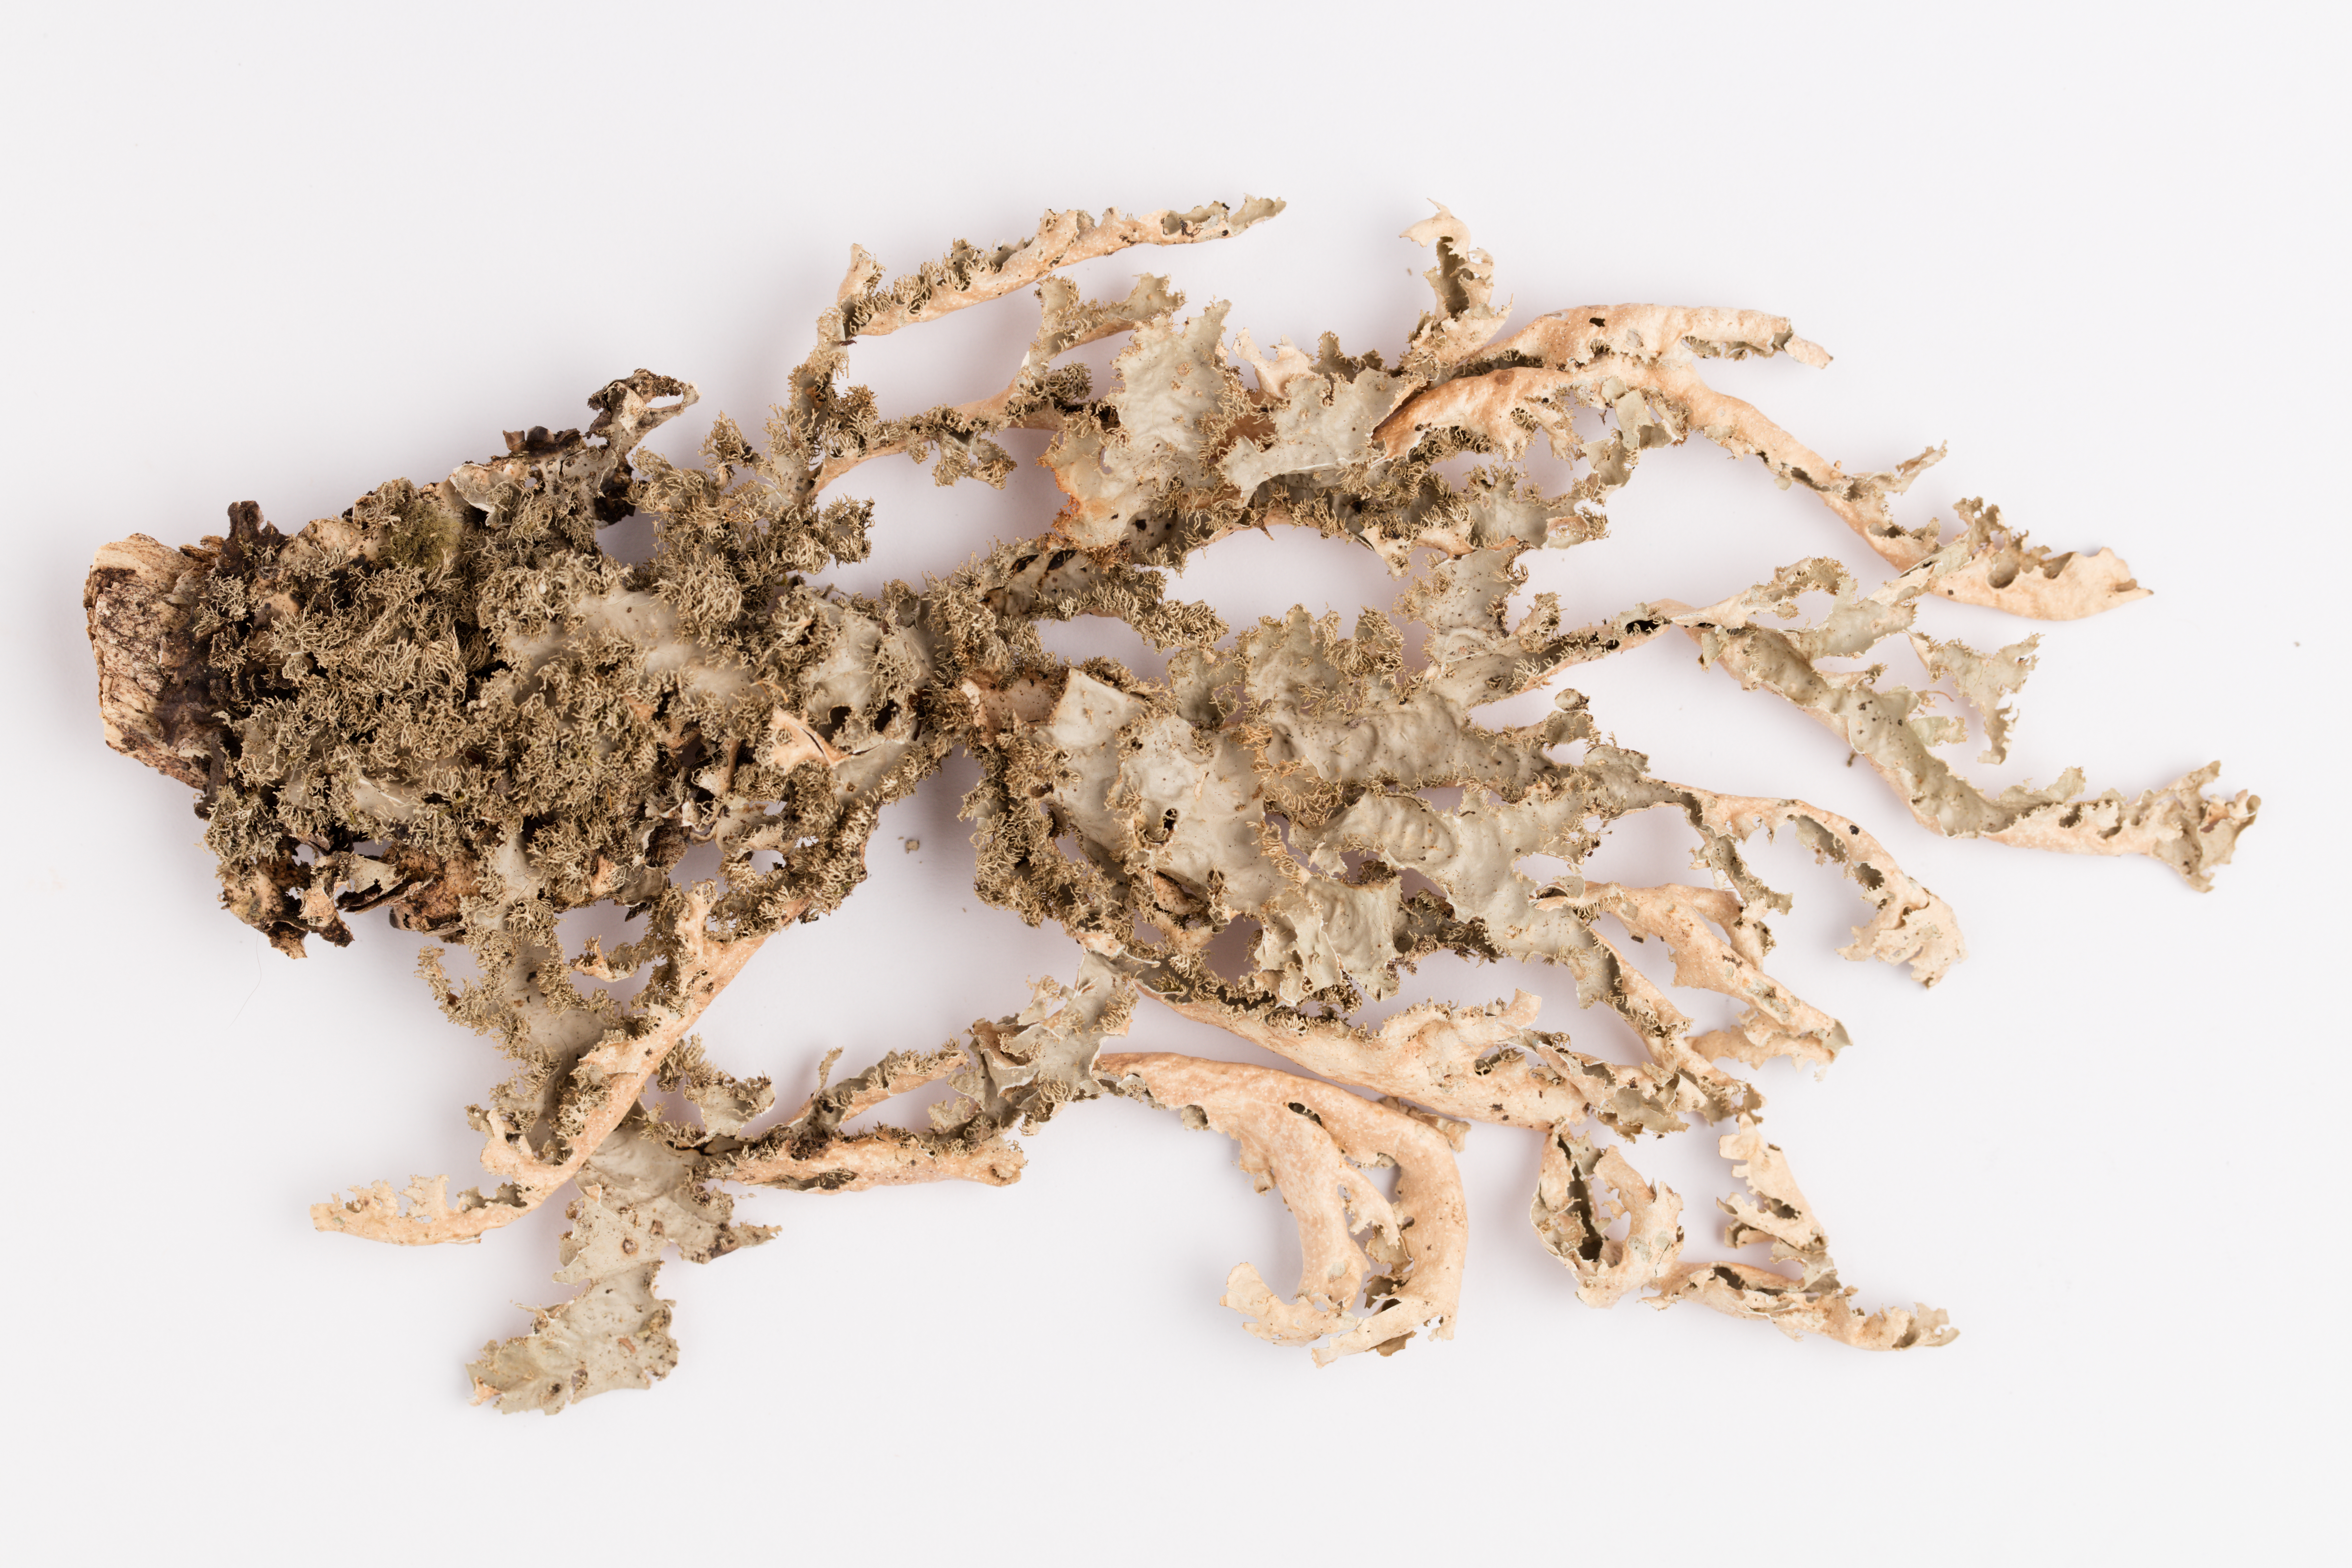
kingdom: Fungi
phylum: Ascomycota
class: Lecanoromycetes
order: Peltigerales
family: Lobariaceae
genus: Pseudocyphellaria
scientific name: Pseudocyphellaria chloroleuca
